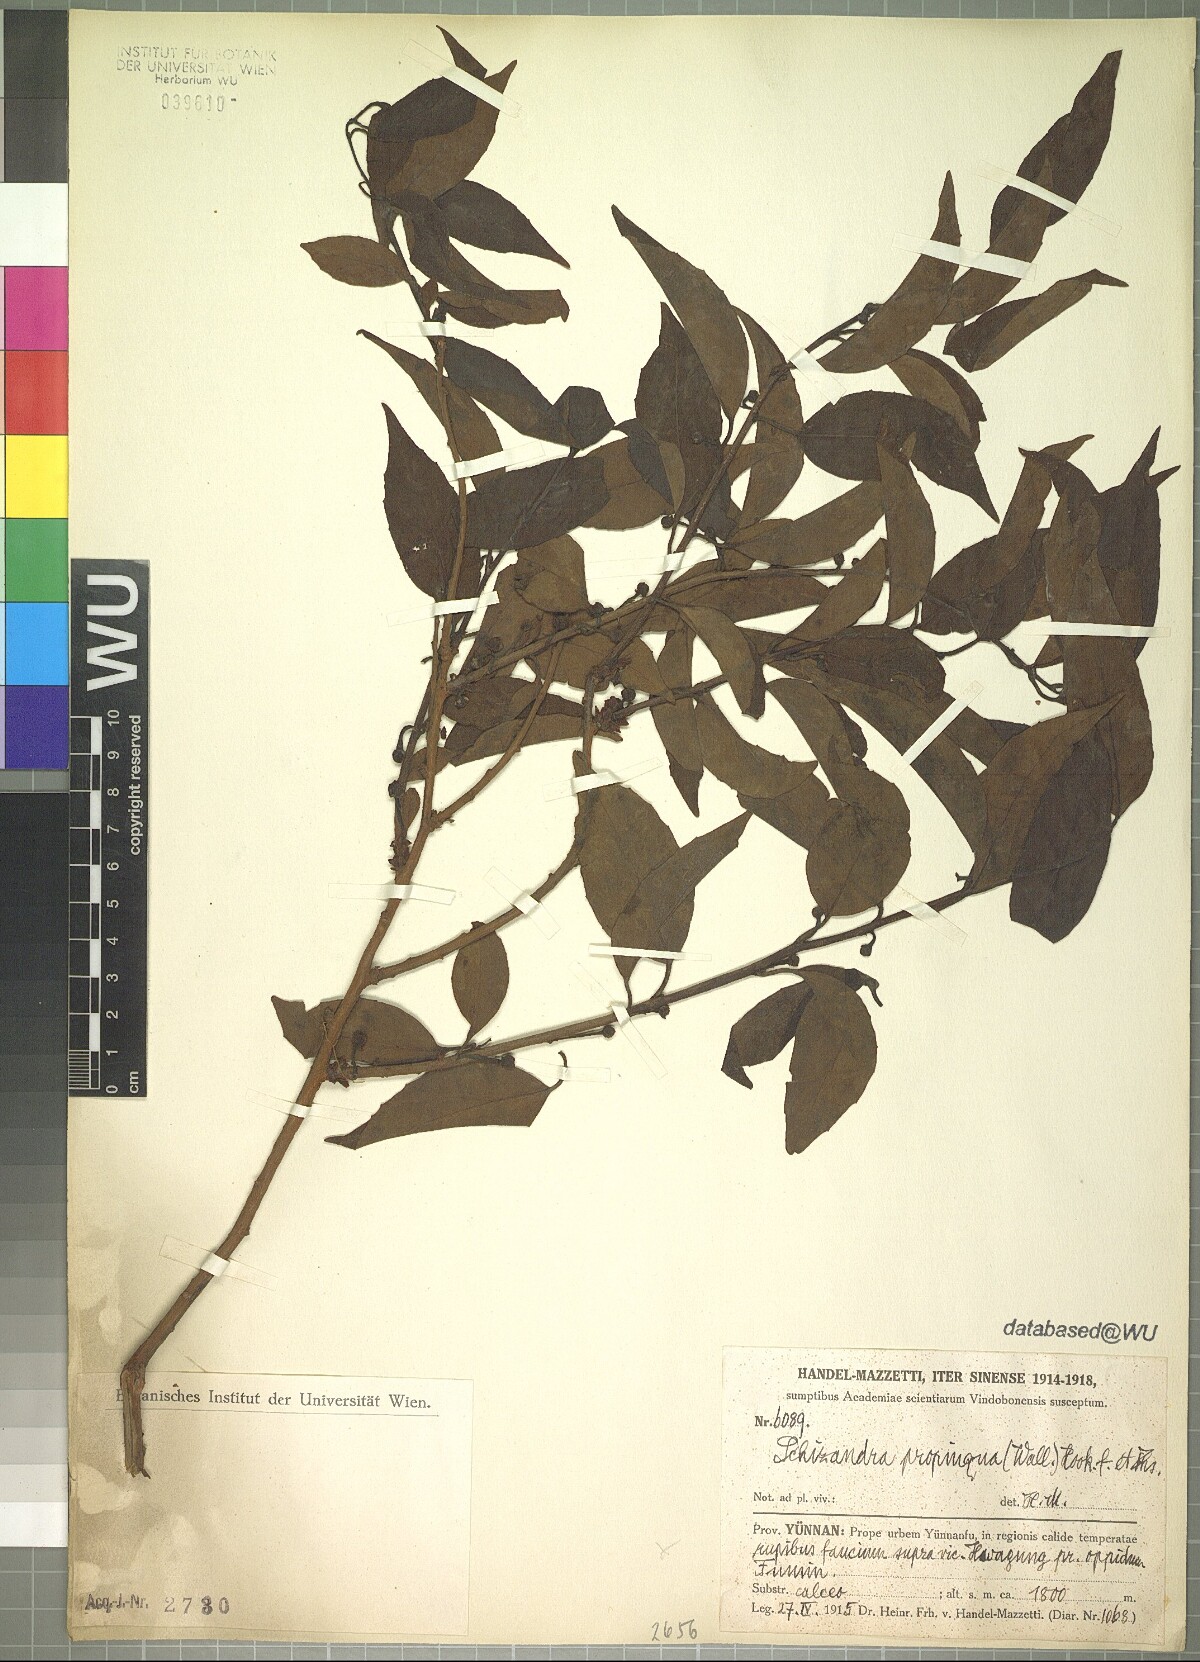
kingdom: Plantae
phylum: Tracheophyta
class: Magnoliopsida
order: Austrobaileyales
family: Schisandraceae
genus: Schisandra
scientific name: Schisandra propinqua
